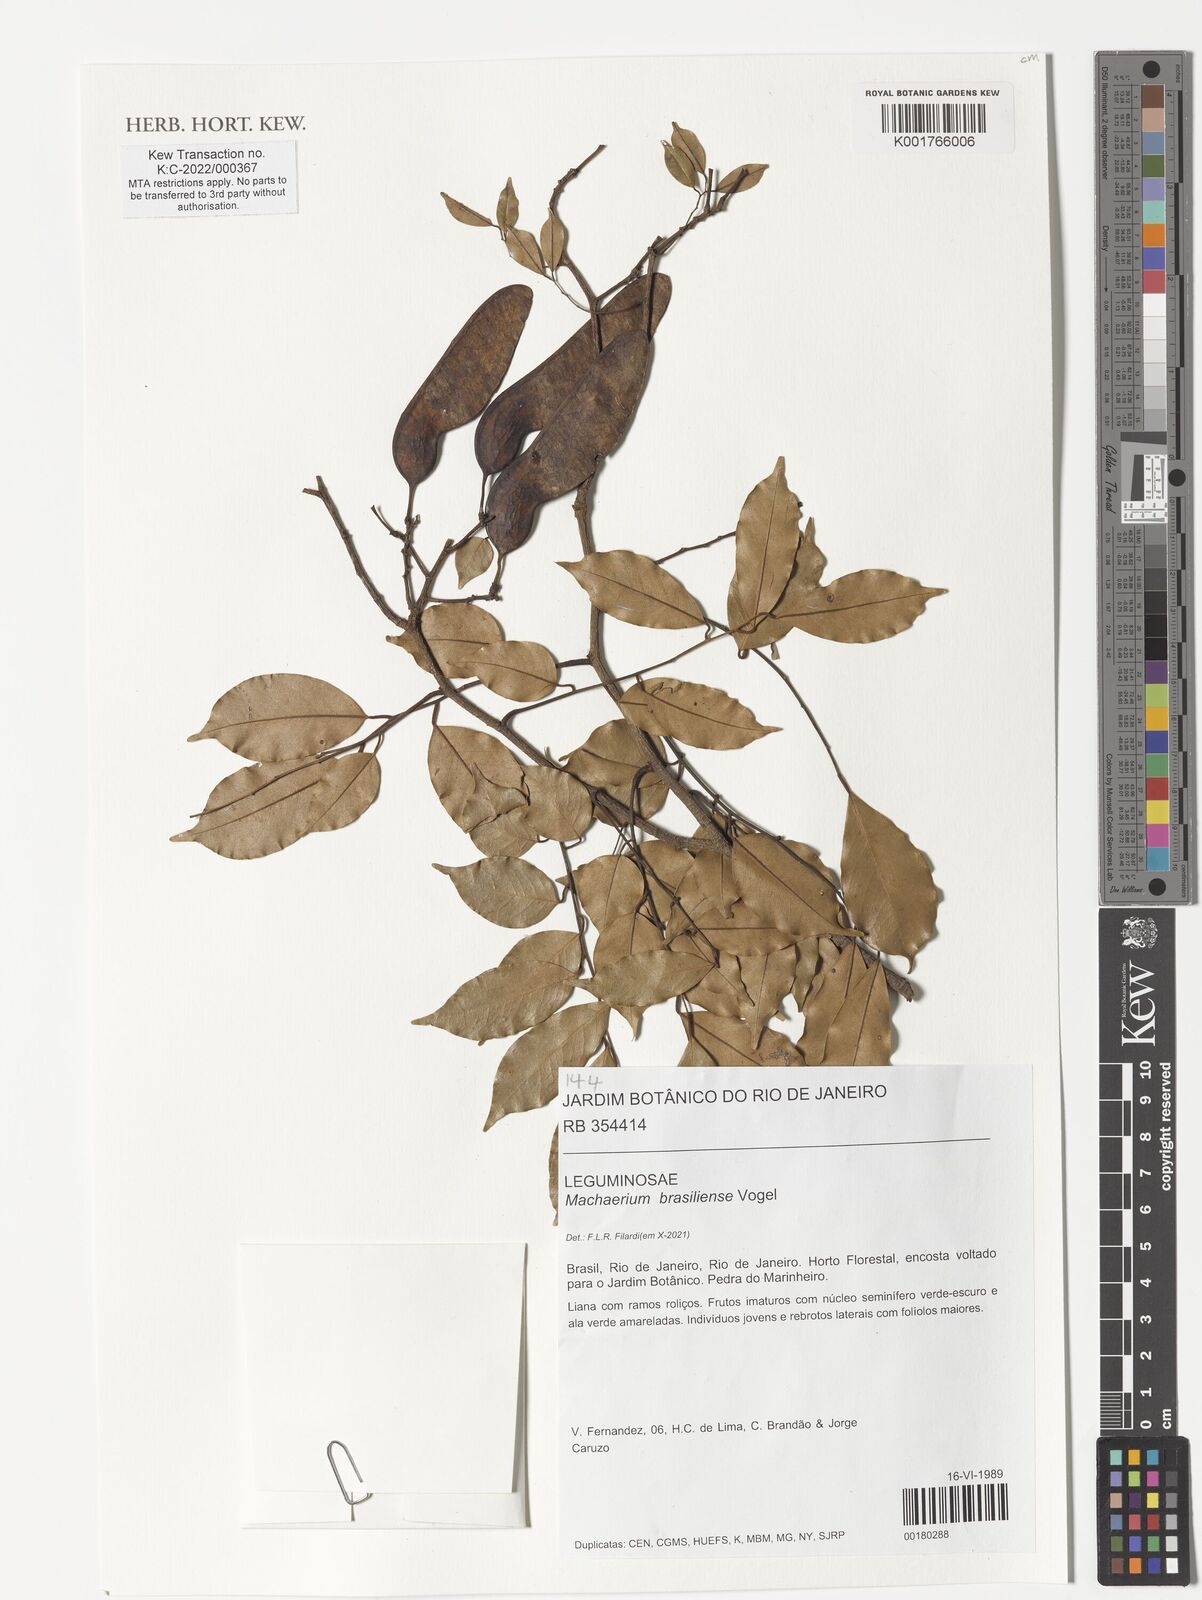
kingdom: Plantae
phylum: Tracheophyta
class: Magnoliopsida
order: Fabales
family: Fabaceae
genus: Machaerium
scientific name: Machaerium
